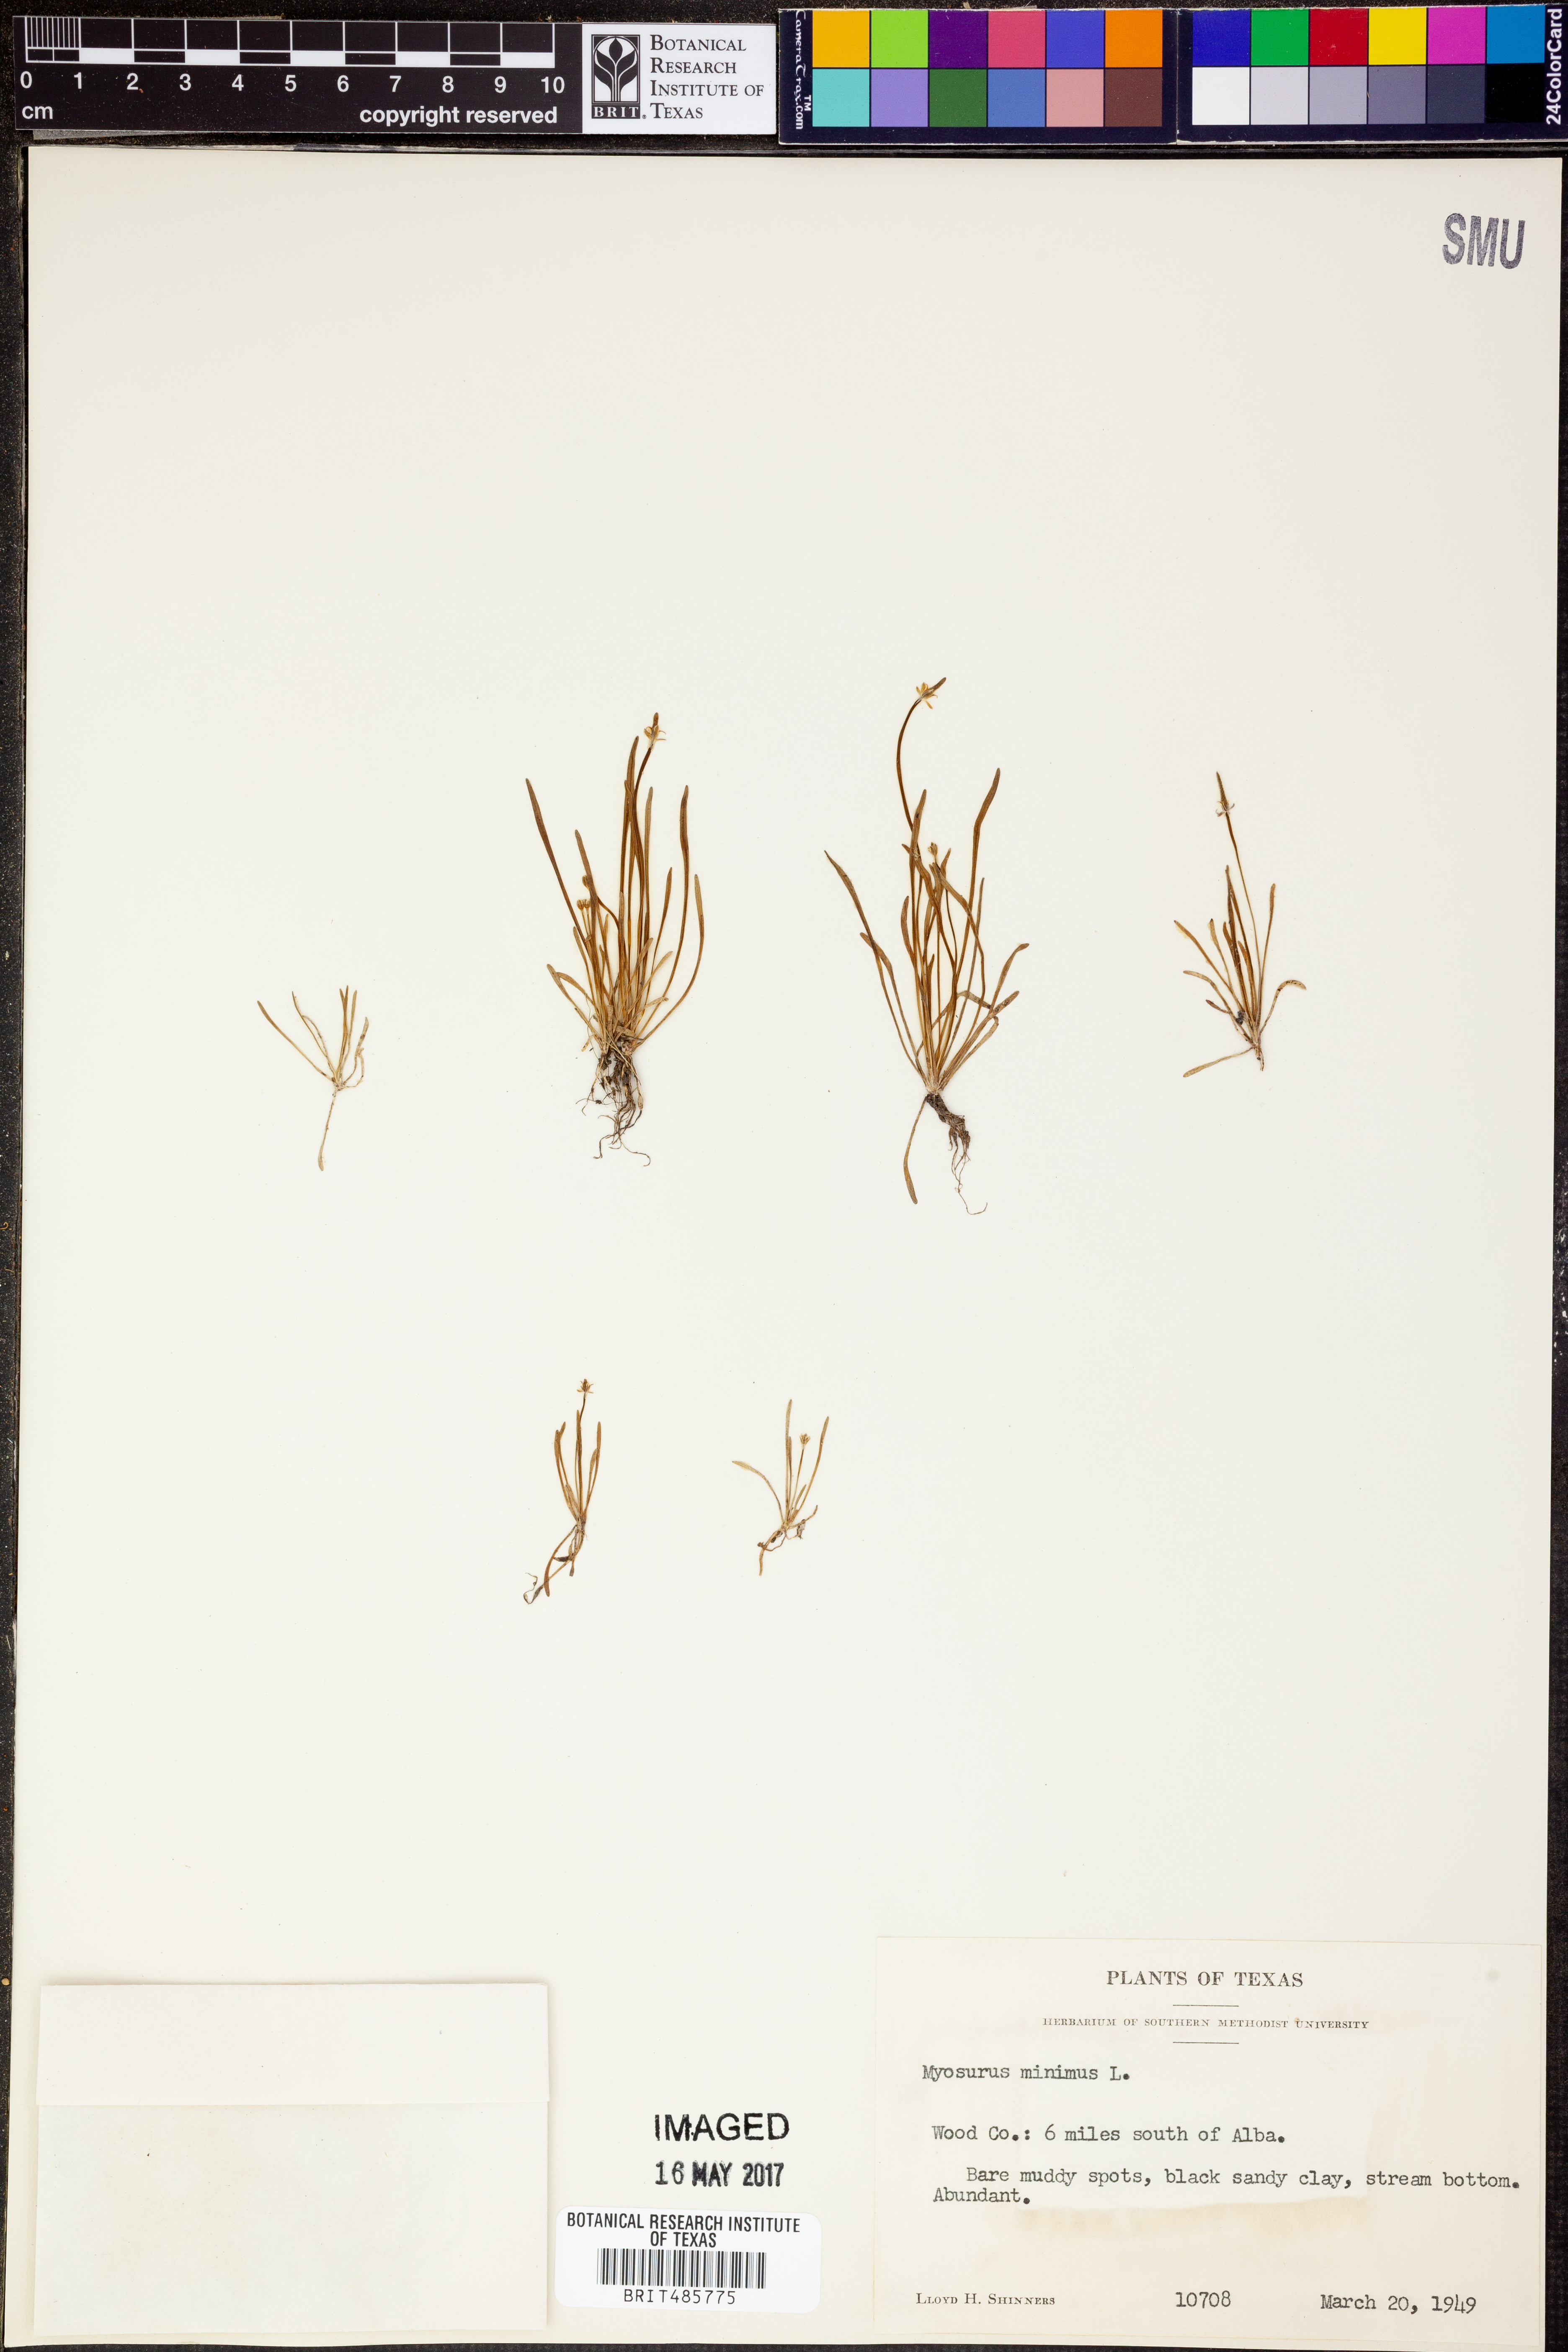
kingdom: Plantae
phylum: Tracheophyta
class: Magnoliopsida
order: Ranunculales
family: Ranunculaceae
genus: Myosurus
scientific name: Myosurus minimus
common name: Mousetail
